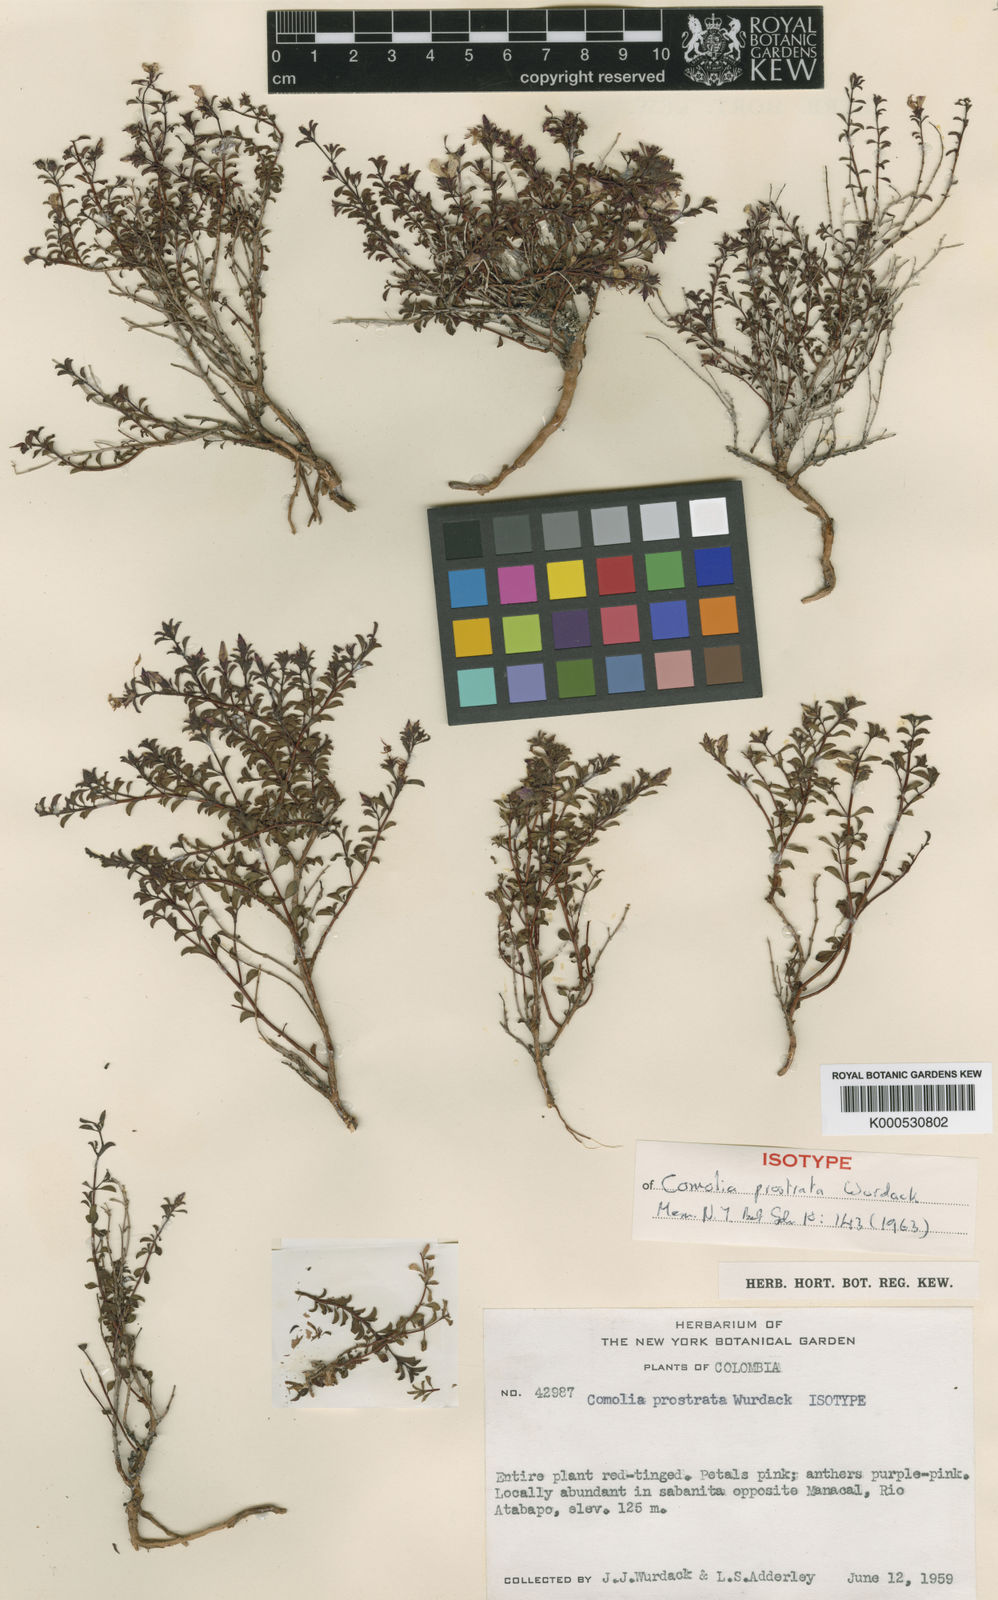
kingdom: Plantae
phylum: Tracheophyta
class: Magnoliopsida
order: Myrtales
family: Melastomataceae
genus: Comolia
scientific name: Comolia prostrata
